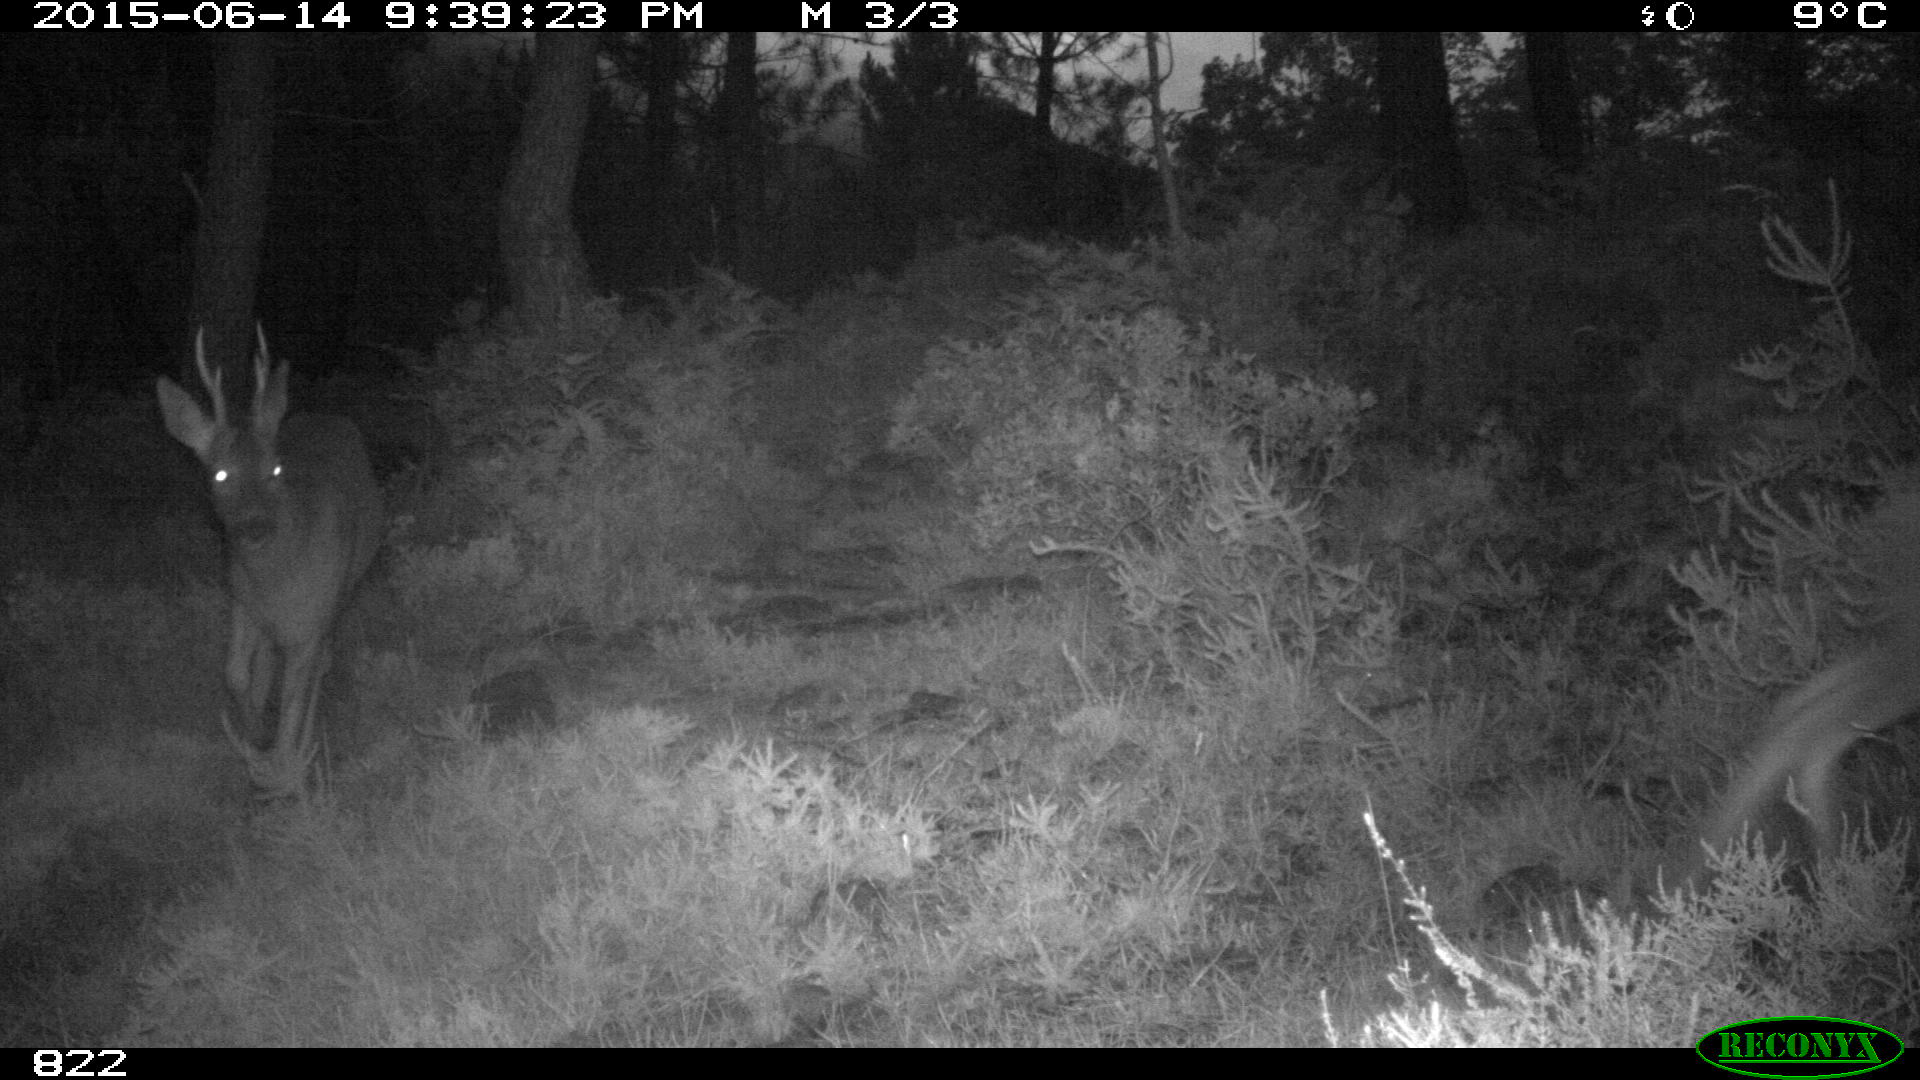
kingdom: Animalia
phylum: Chordata
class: Mammalia
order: Artiodactyla
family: Cervidae
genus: Capreolus
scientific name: Capreolus capreolus
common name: Western roe deer
